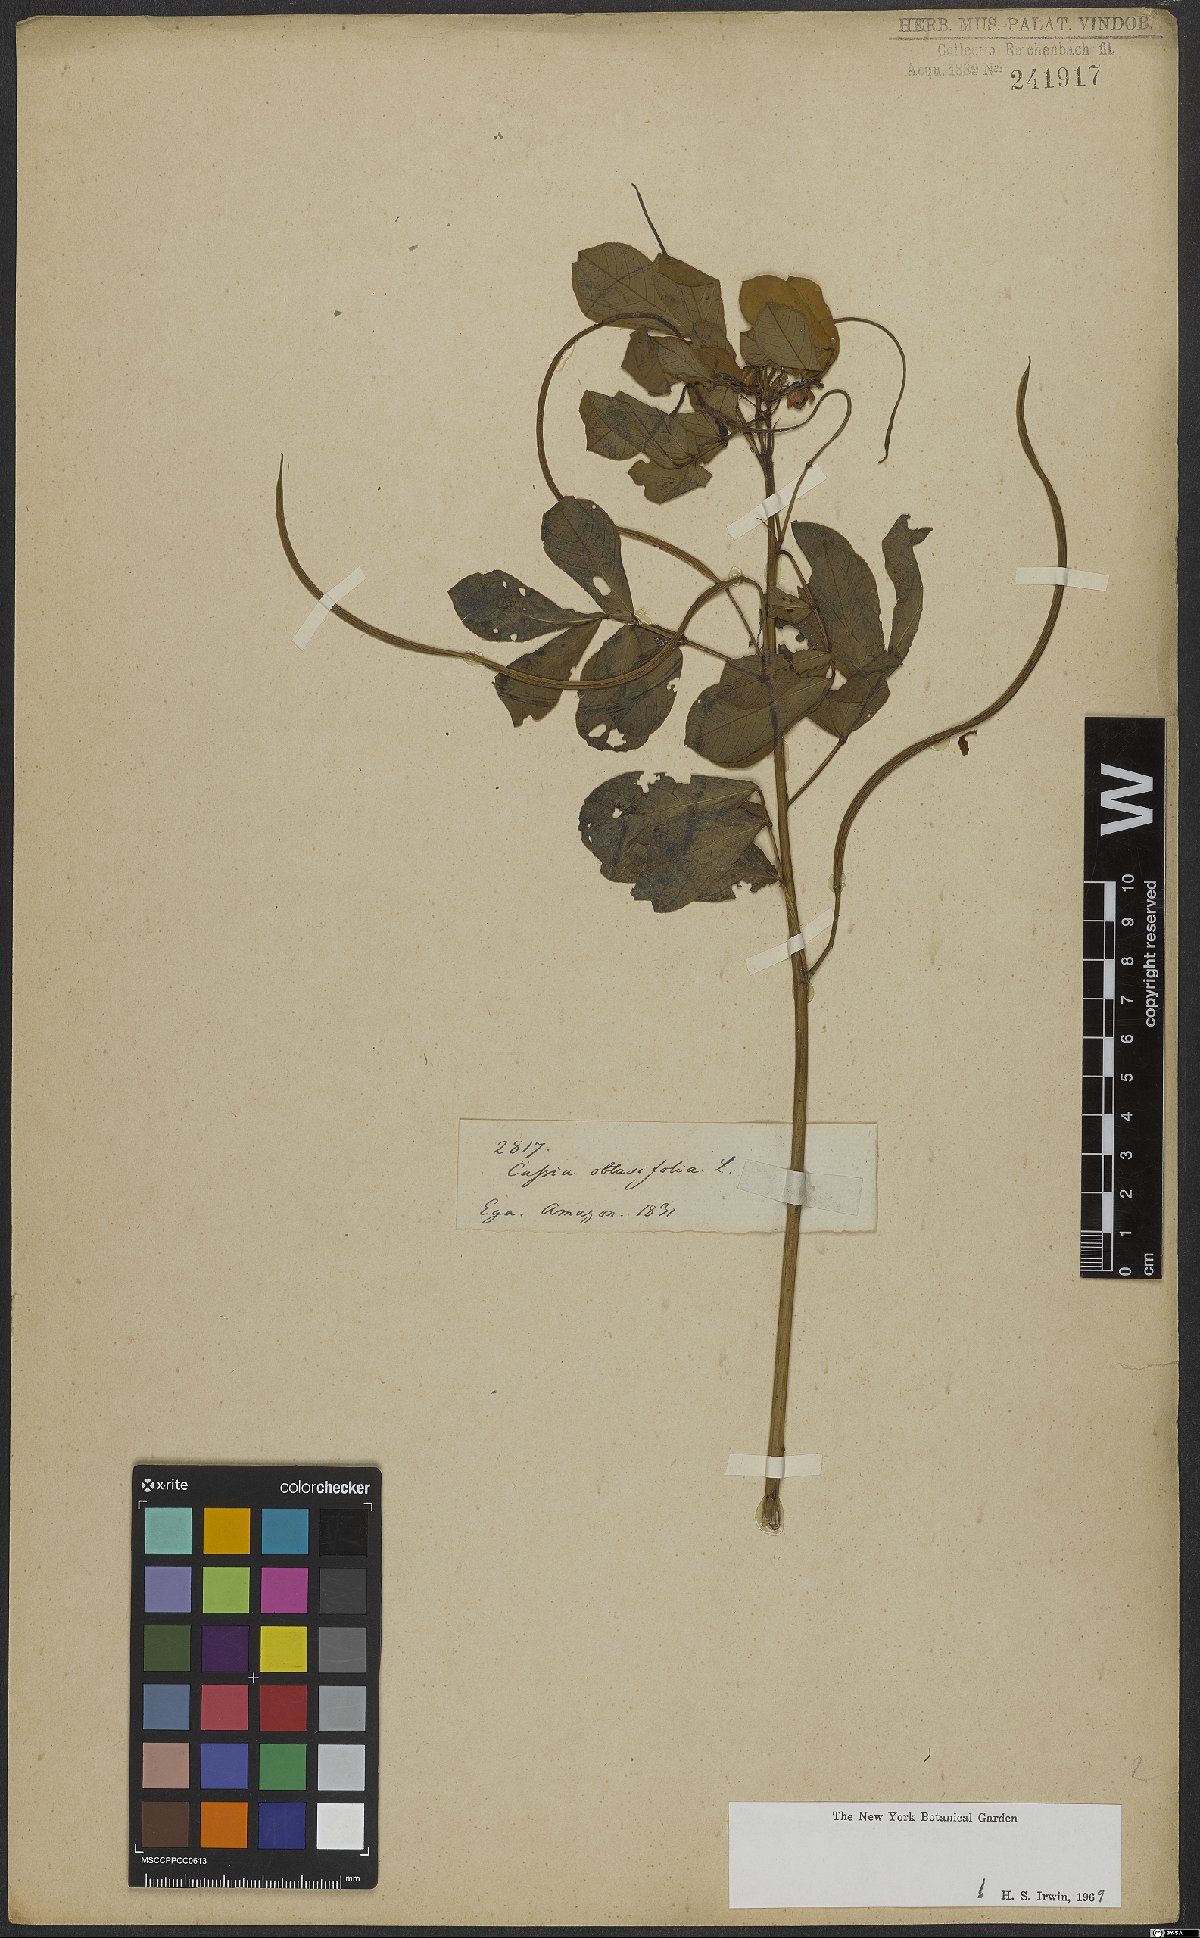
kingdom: Plantae
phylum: Tracheophyta
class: Magnoliopsida
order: Fabales
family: Fabaceae
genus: Senna
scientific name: Senna obtusifolia
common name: Java-bean
